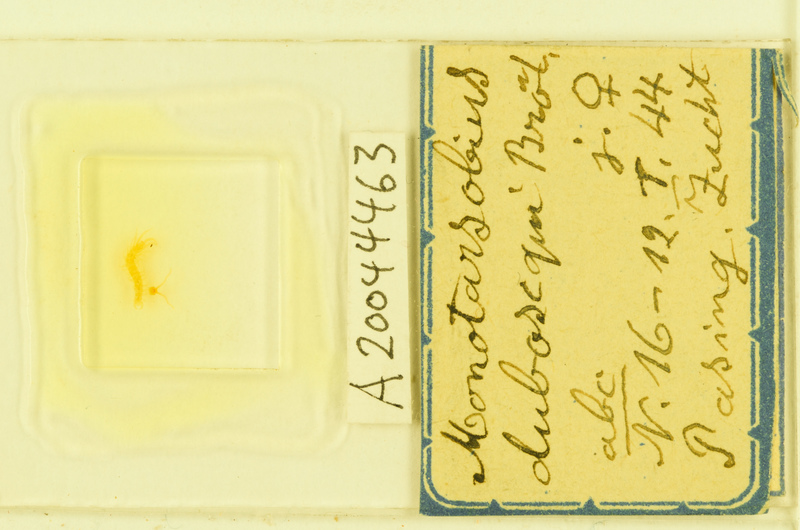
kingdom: Animalia
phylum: Arthropoda
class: Chilopoda
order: Lithobiomorpha
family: Lithobiidae
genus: Lithobius
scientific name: Lithobius microps
